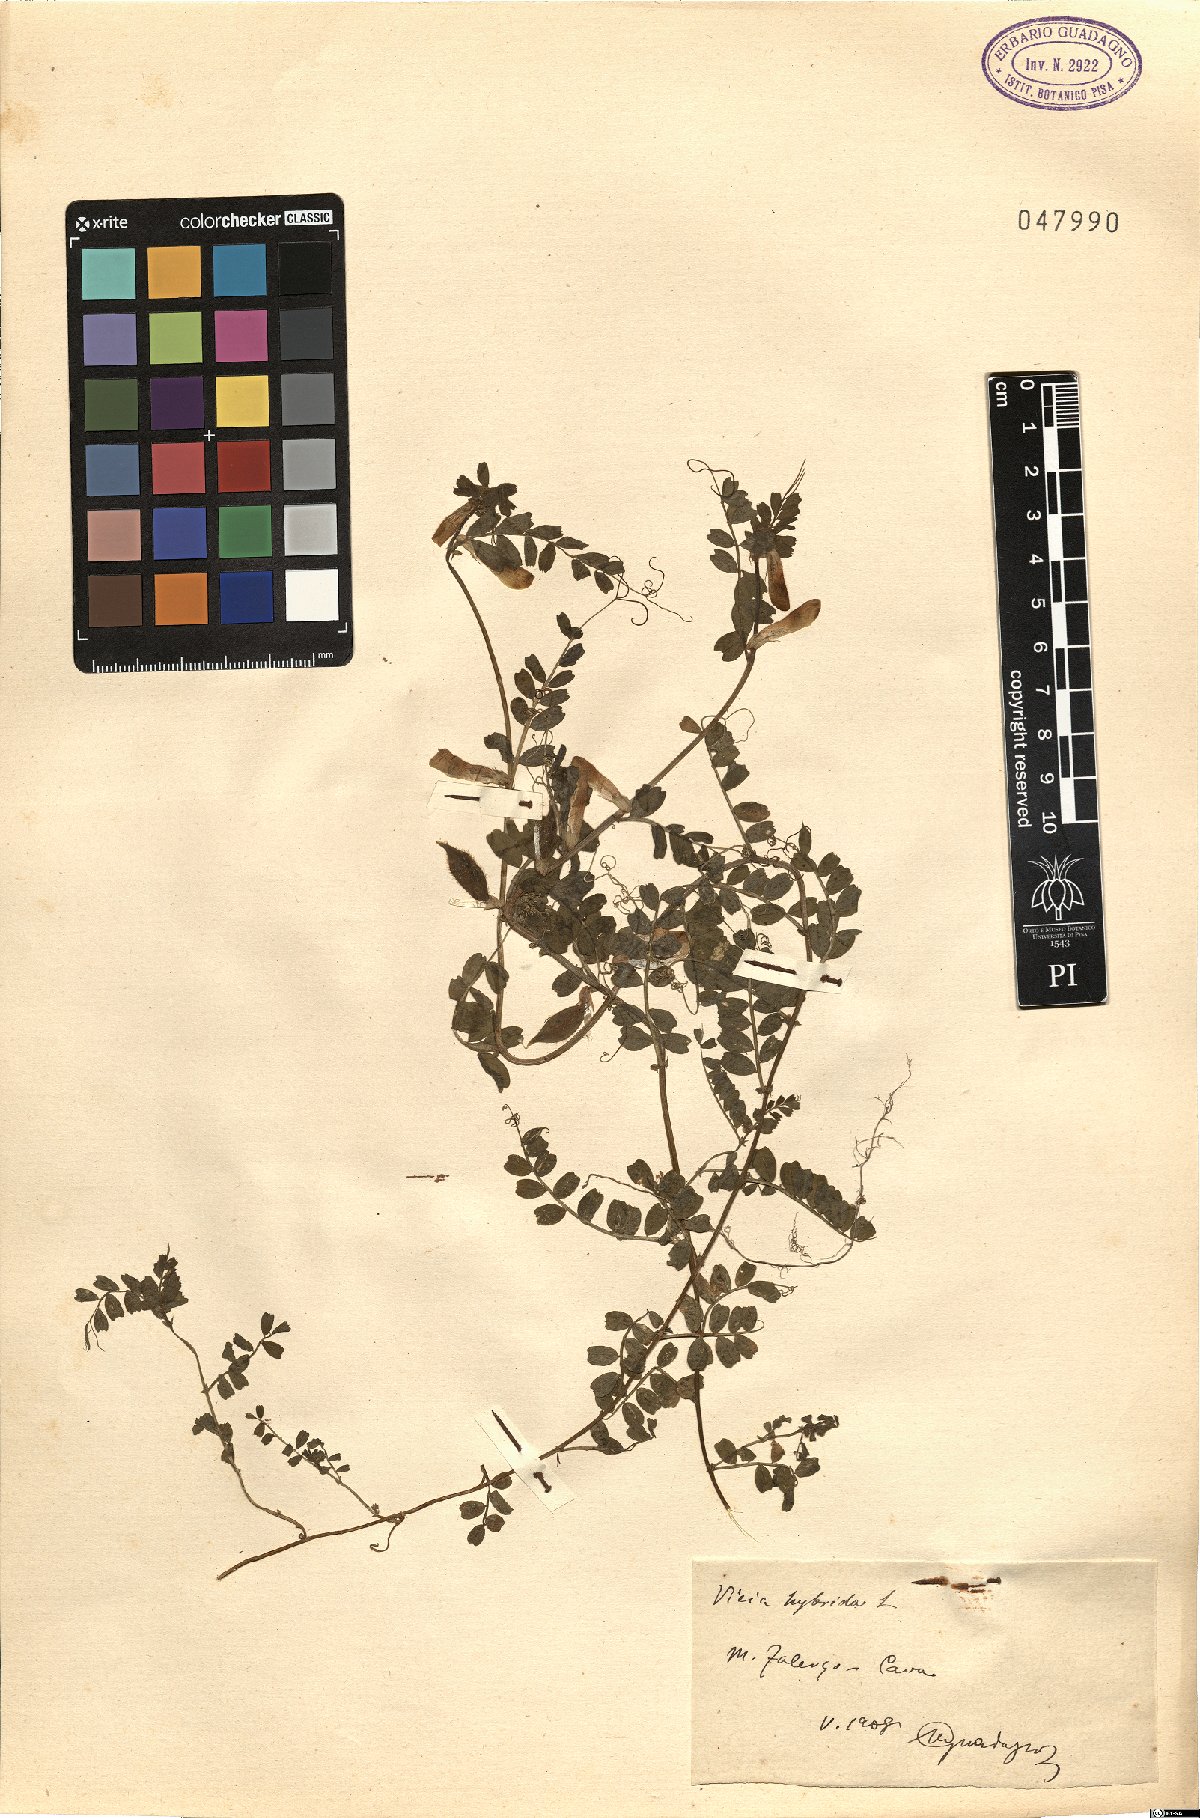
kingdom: Plantae
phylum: Tracheophyta
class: Magnoliopsida
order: Fabales
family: Fabaceae
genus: Vicia
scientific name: Vicia hybrida
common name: Hairy yellow vetch
